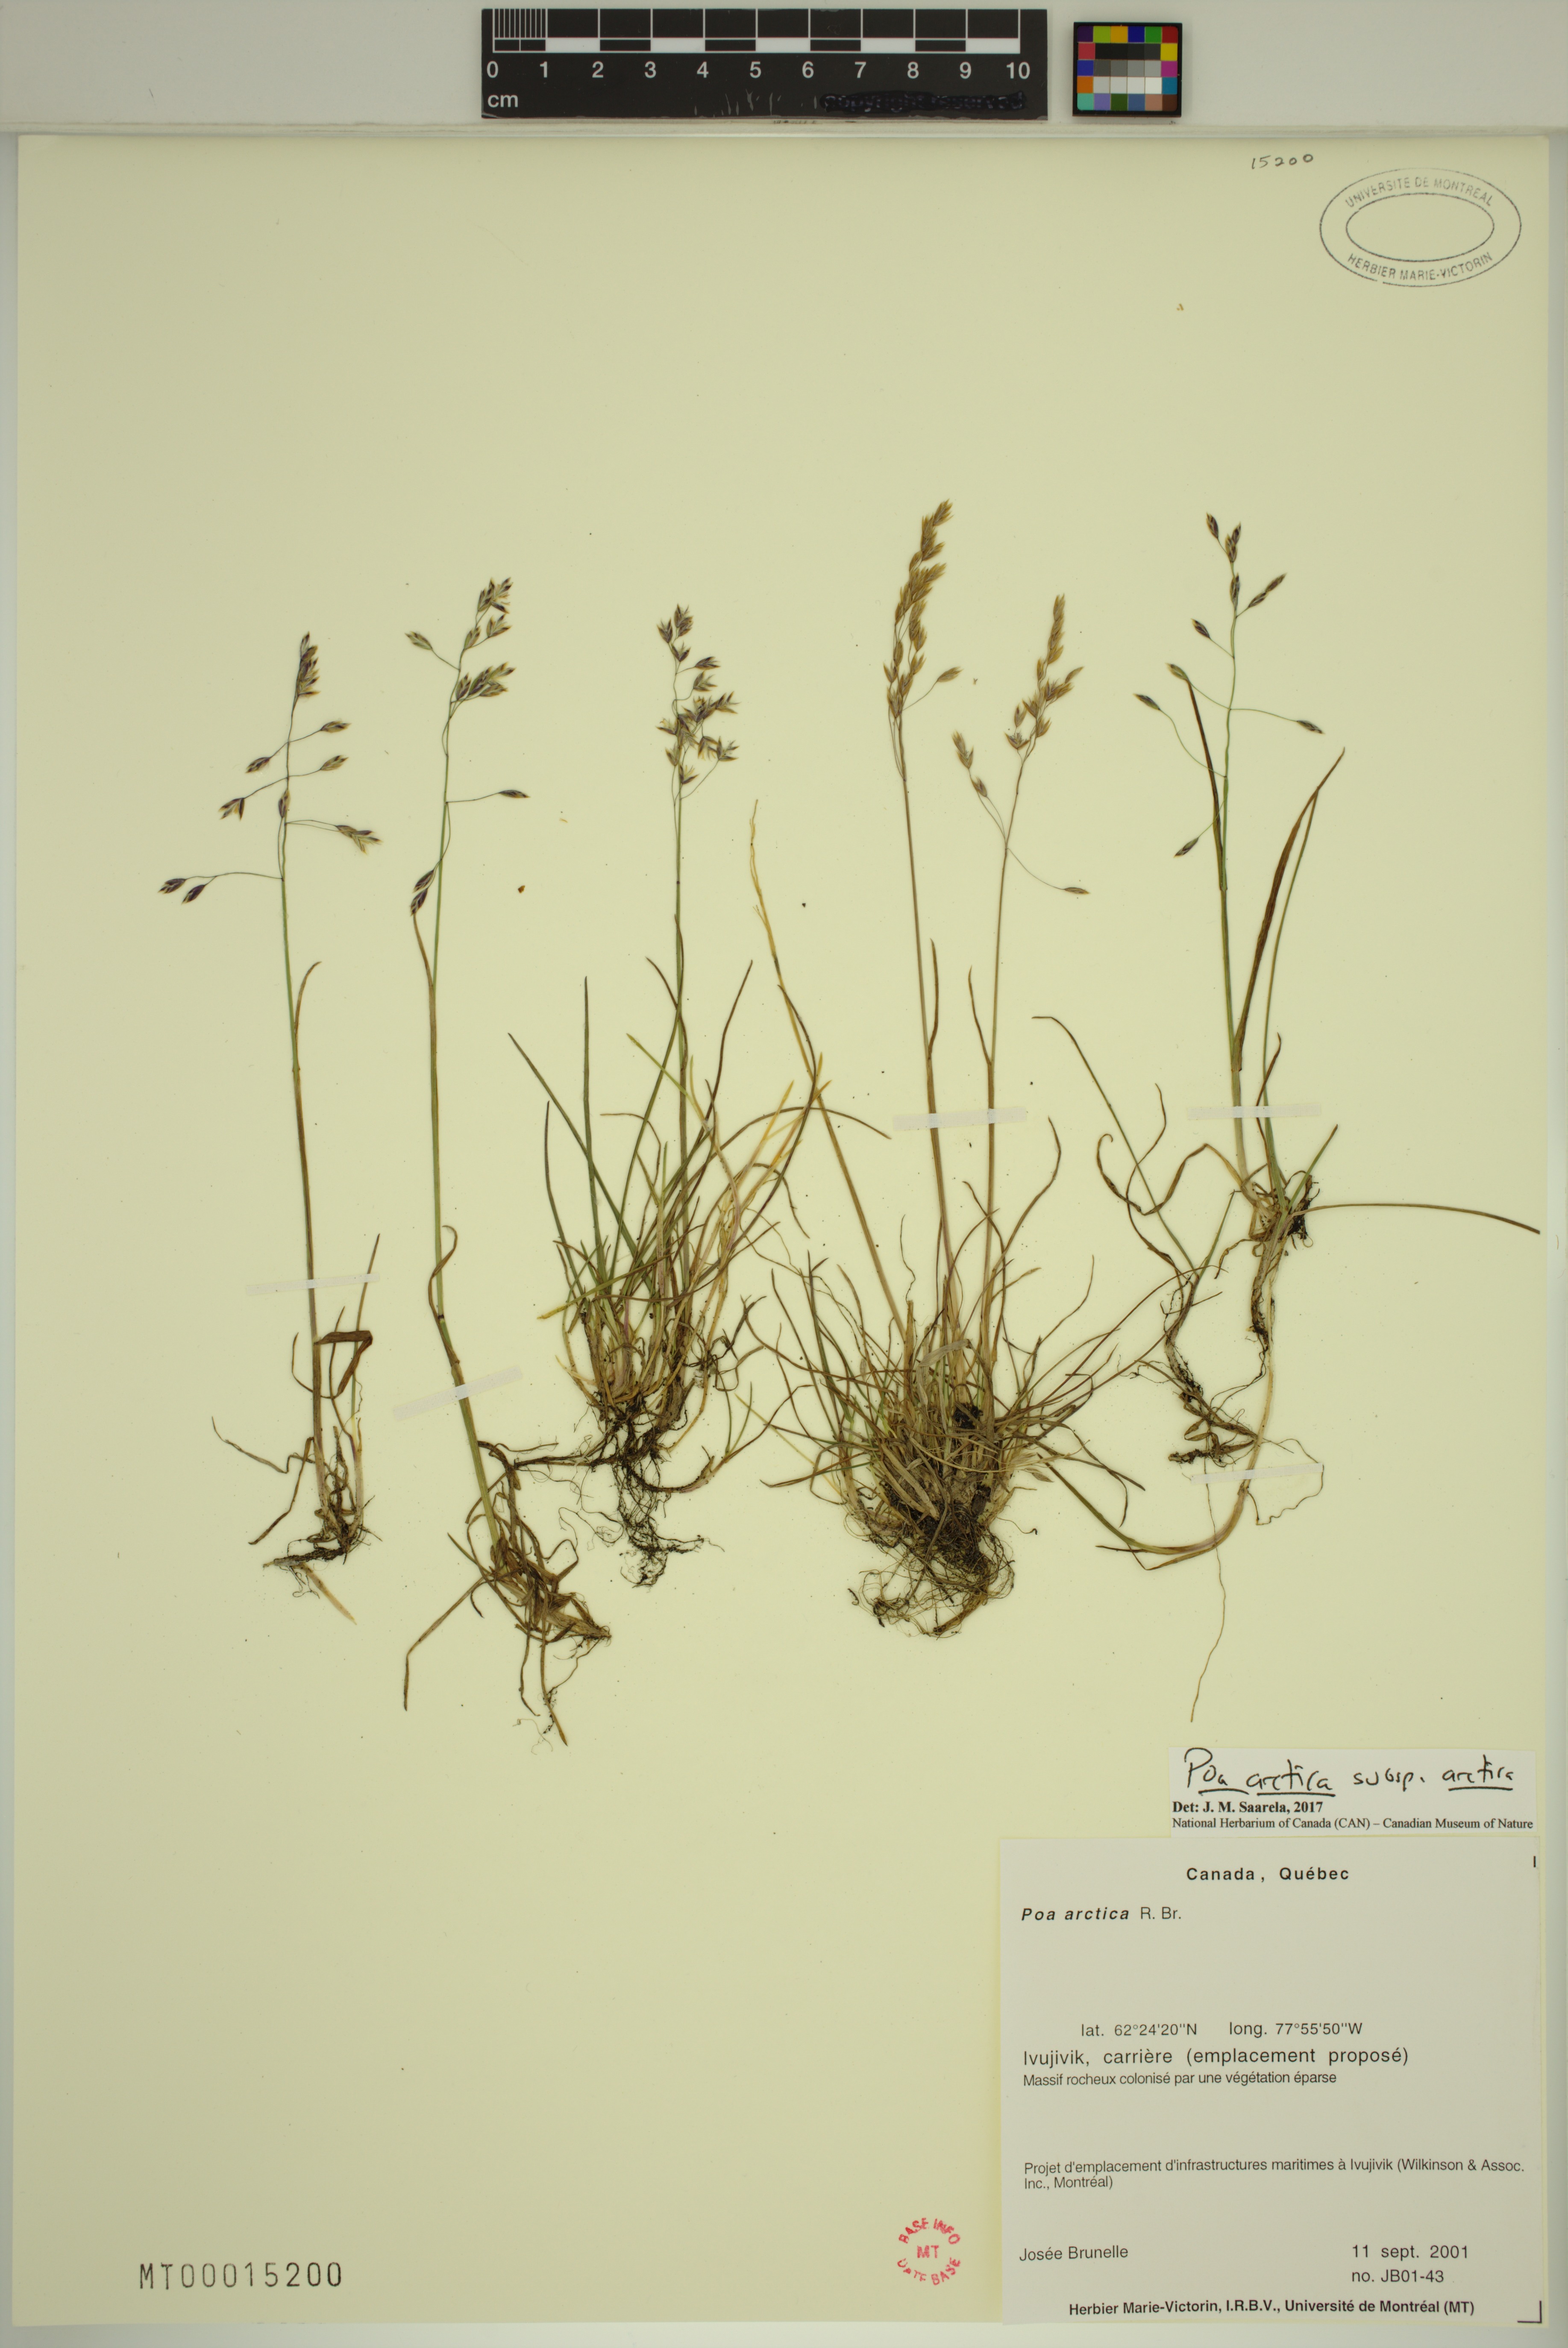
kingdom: Plantae
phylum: Tracheophyta
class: Liliopsida
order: Poales
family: Poaceae
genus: Poa
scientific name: Poa arctica
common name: Arctic bluegrass
